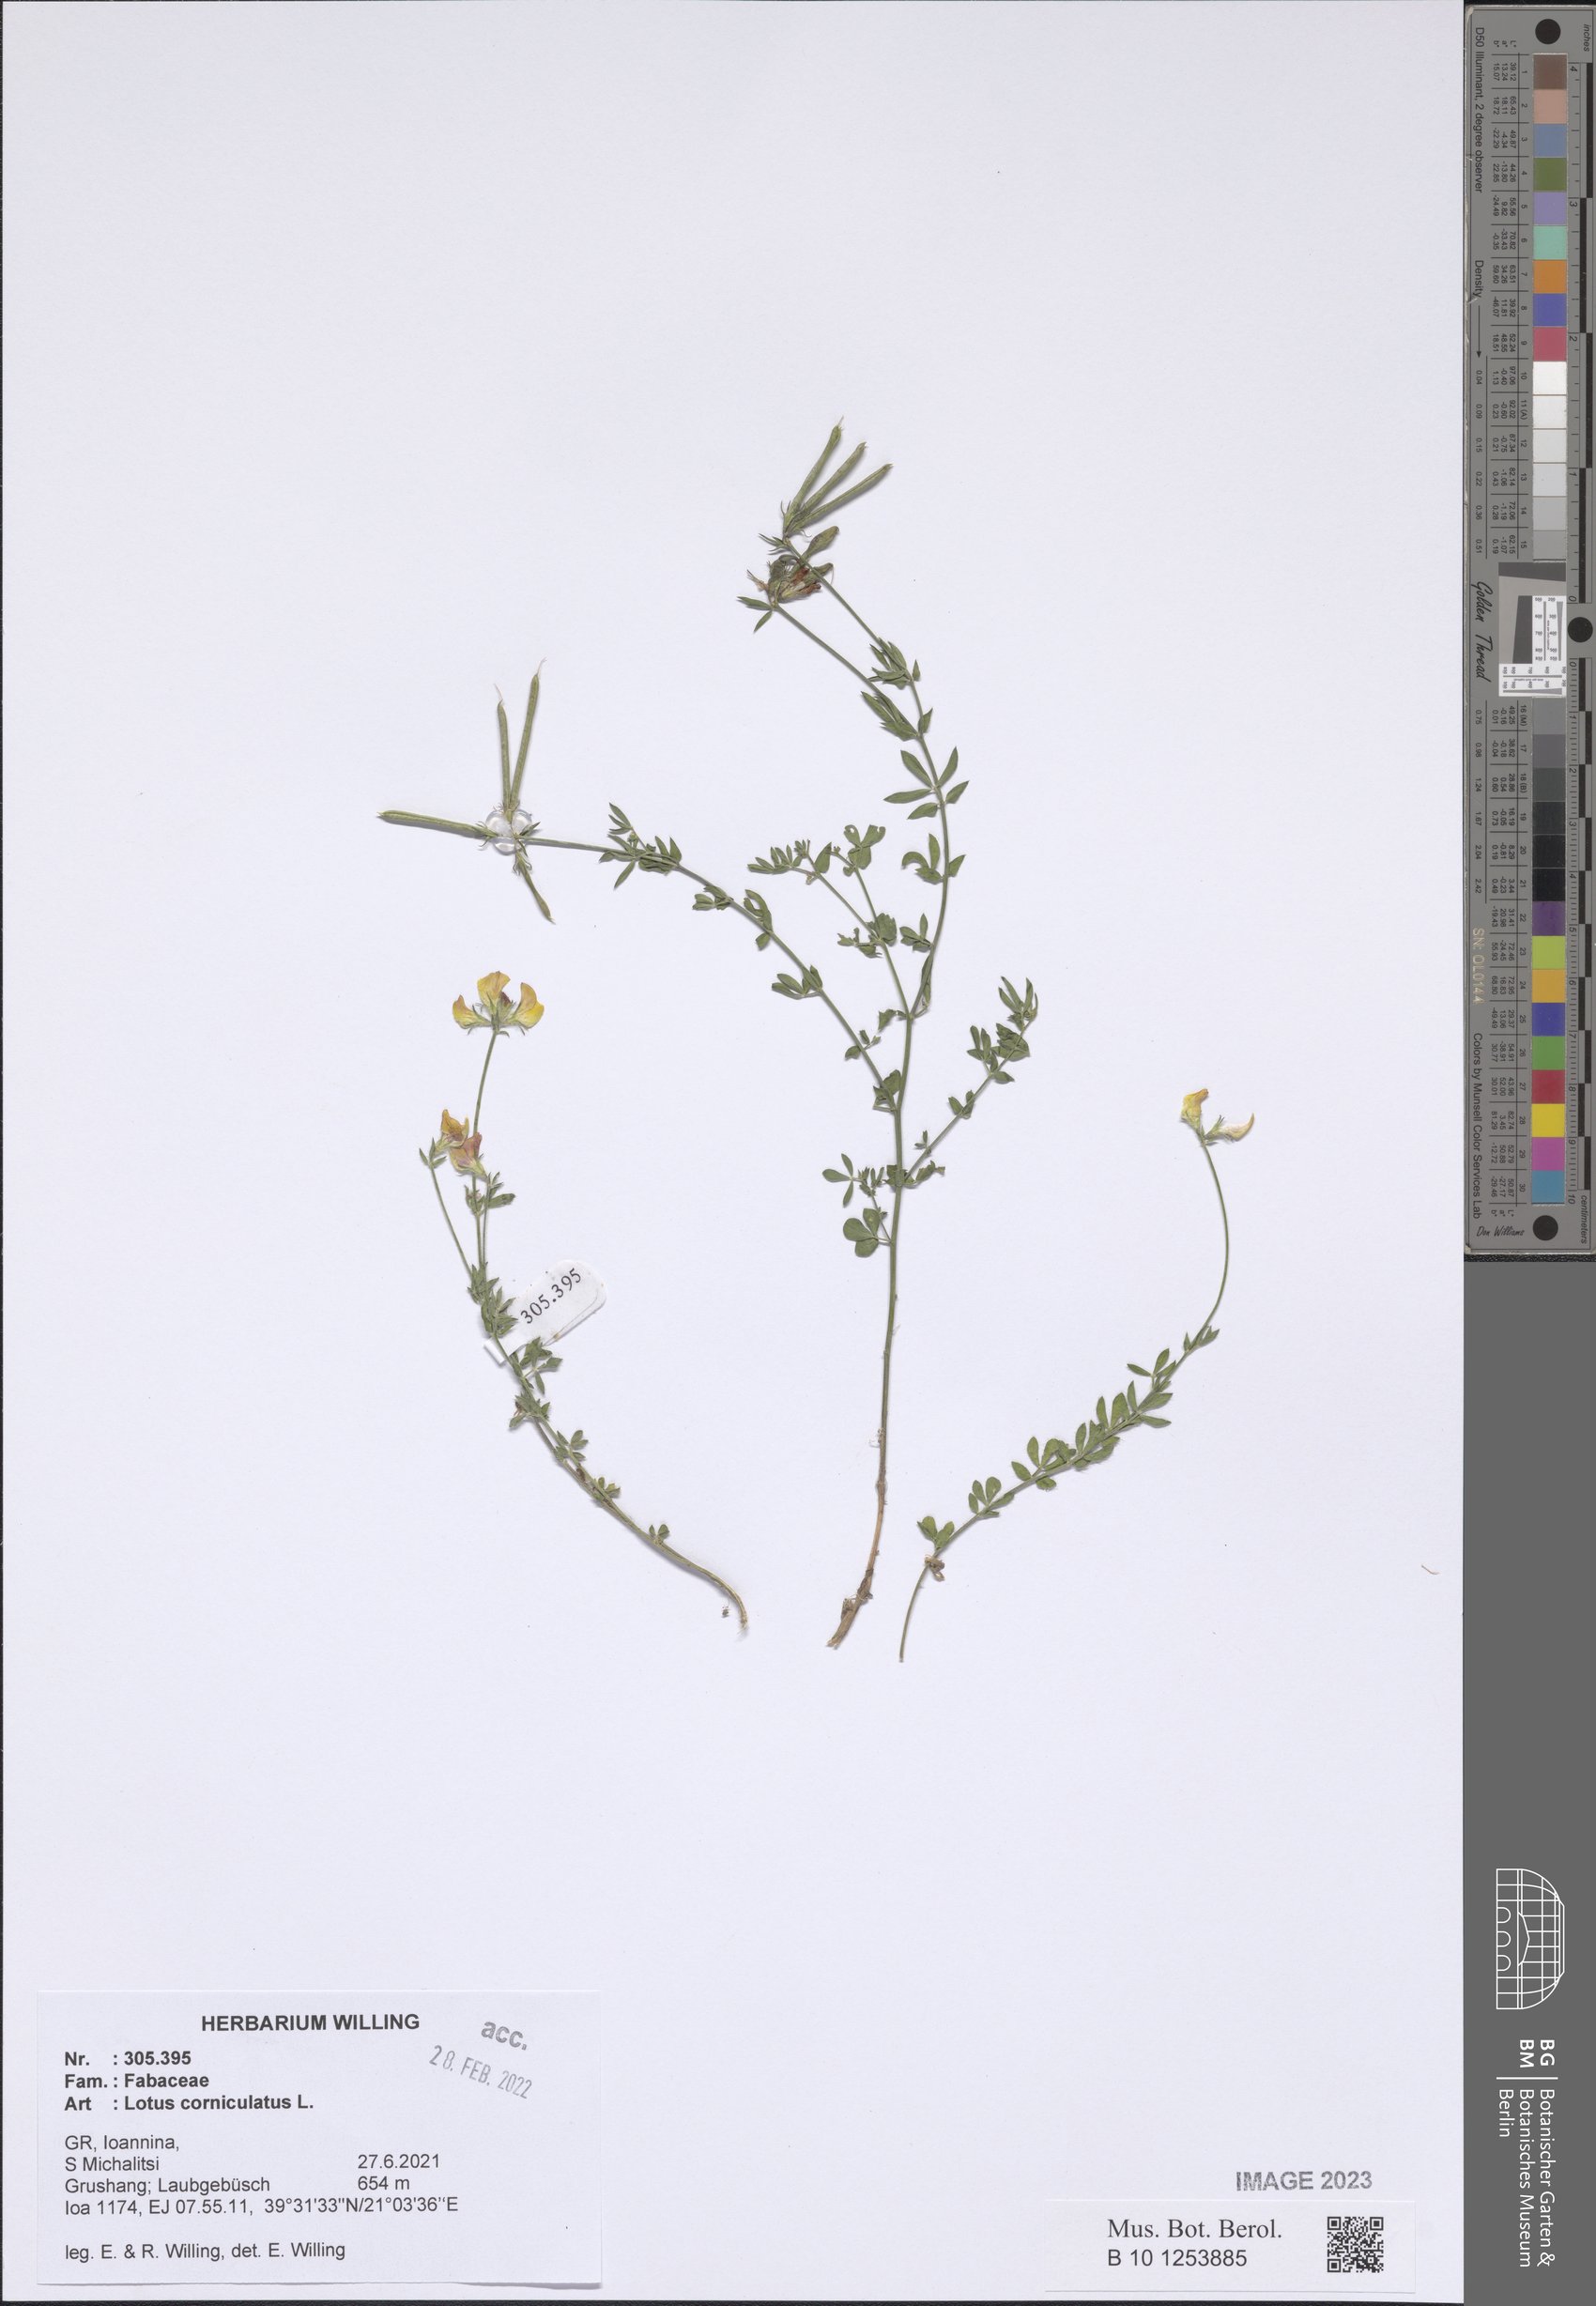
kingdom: Plantae
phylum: Tracheophyta
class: Magnoliopsida
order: Fabales
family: Fabaceae
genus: Lotus
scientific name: Lotus corniculatus
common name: Common bird's-foot-trefoil
